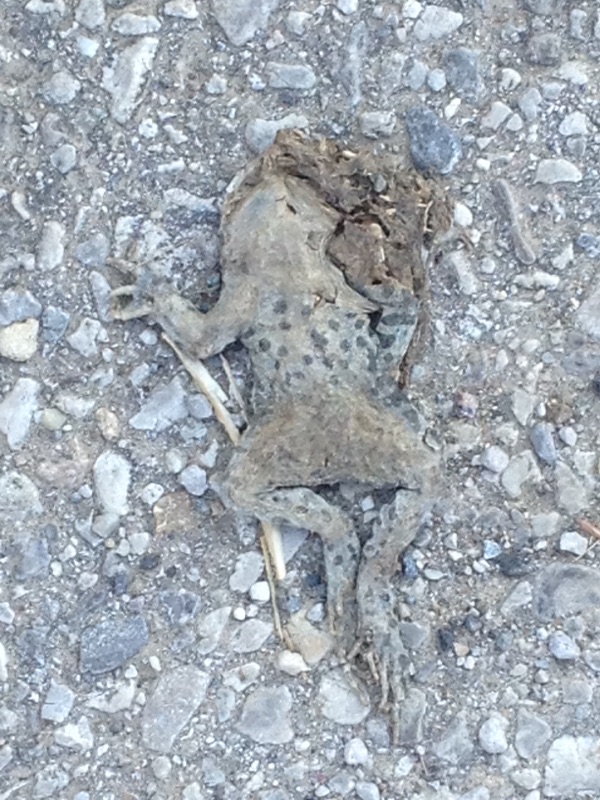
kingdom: Animalia
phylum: Chordata
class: Amphibia
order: Anura
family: Bufonidae
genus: Bufotes
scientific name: Bufotes viridis
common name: European green toad
